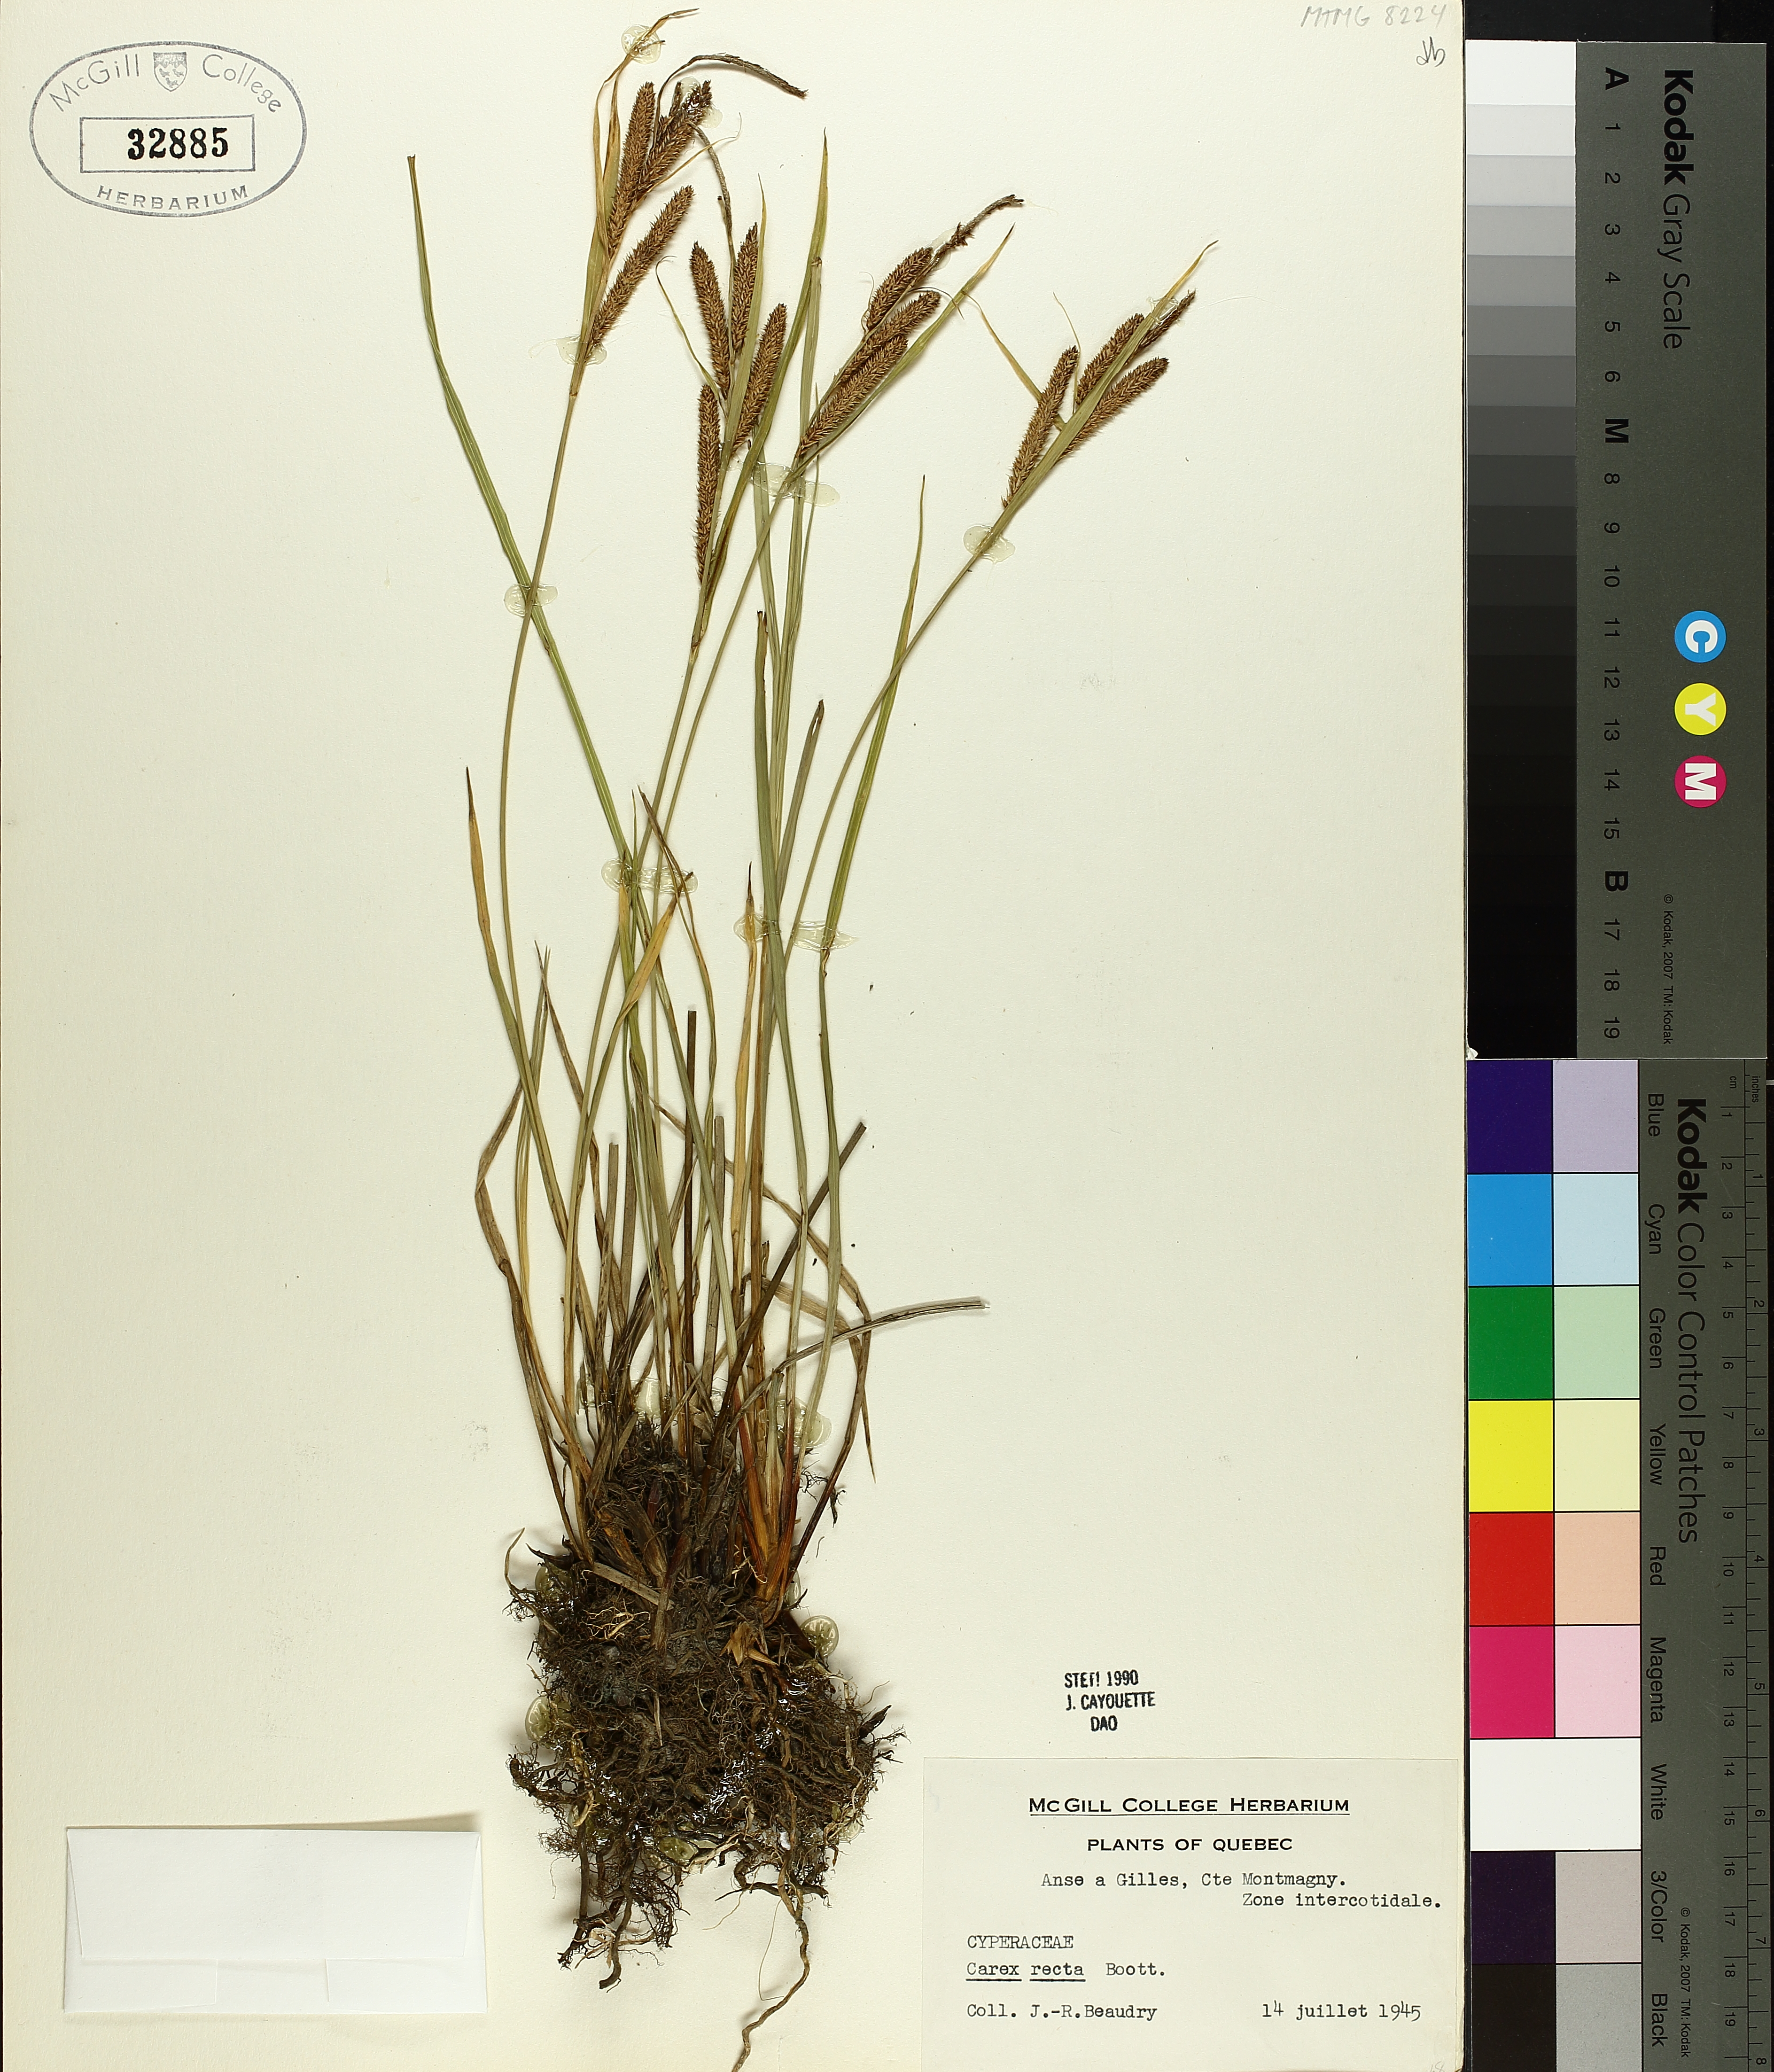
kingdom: Plantae
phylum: Tracheophyta
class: Liliopsida
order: Poales
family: Cyperaceae
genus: Carex
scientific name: Carex recta
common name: Estuarine sedge
